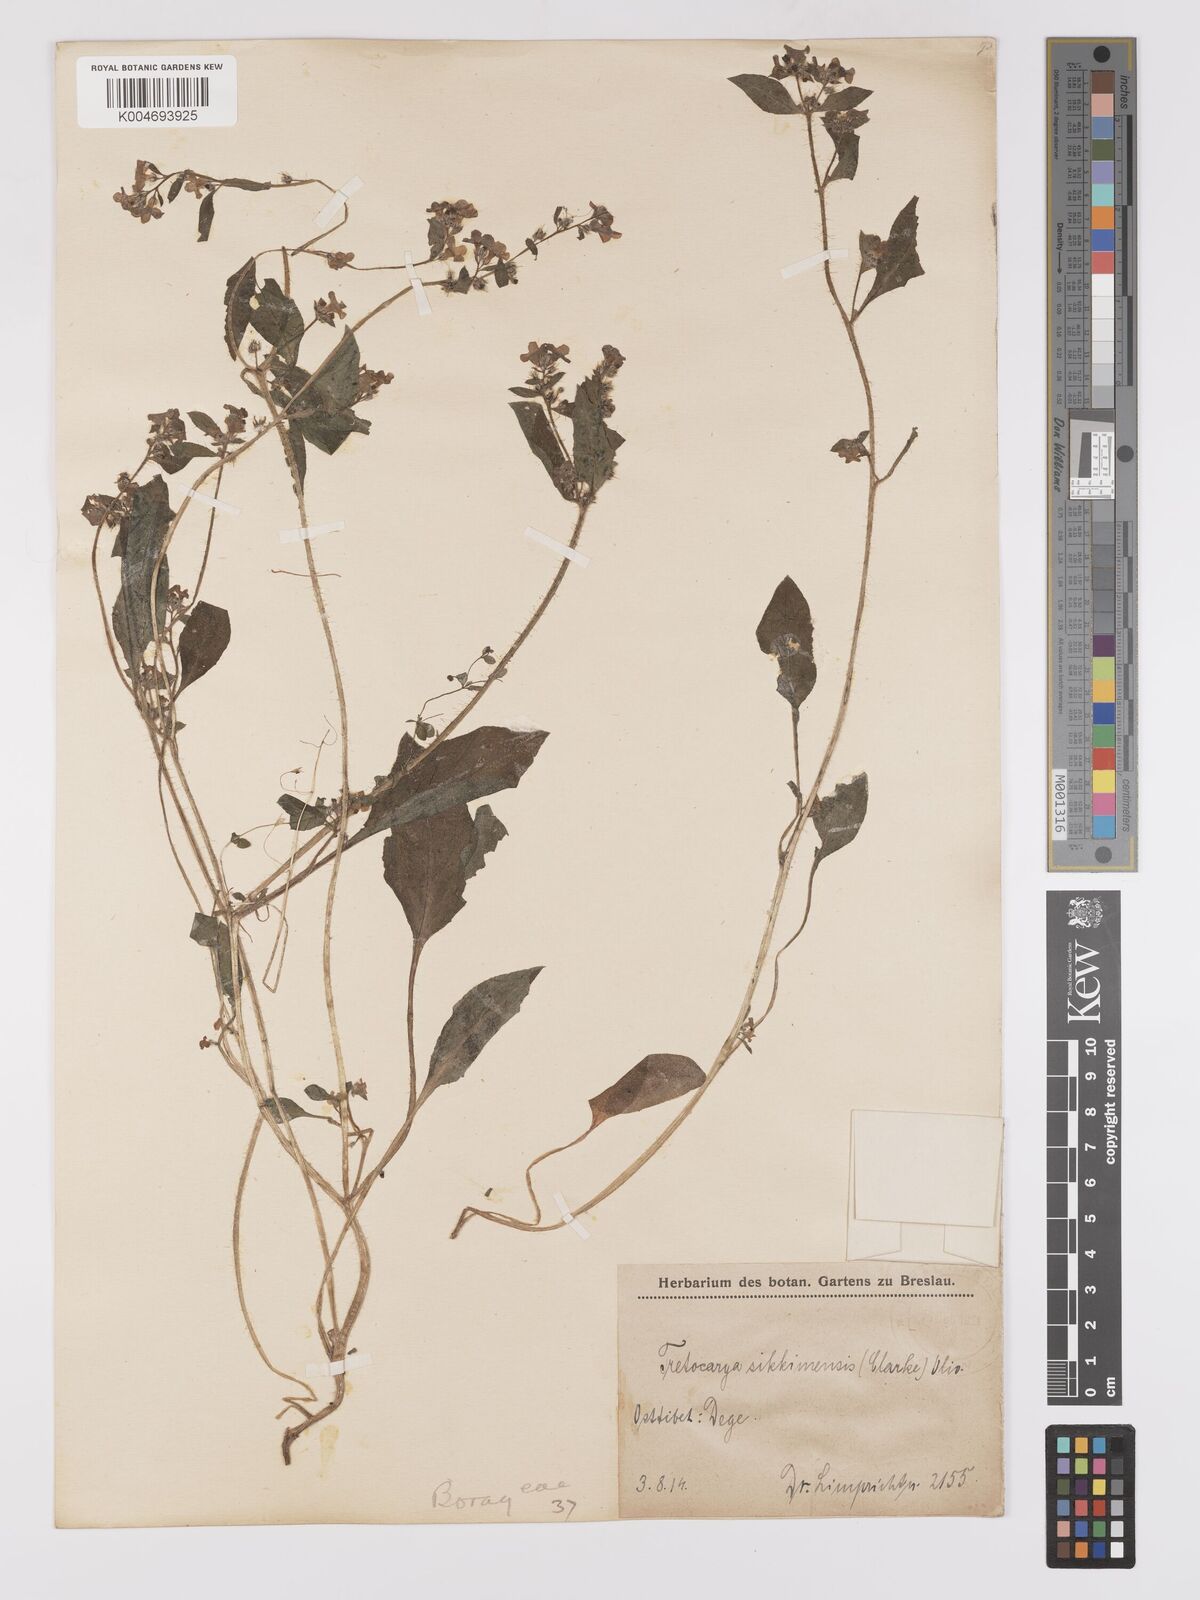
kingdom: Plantae
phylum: Tracheophyta
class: Magnoliopsida
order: Boraginales
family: Boraginaceae
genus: Microula
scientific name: Microula sikkimensis
